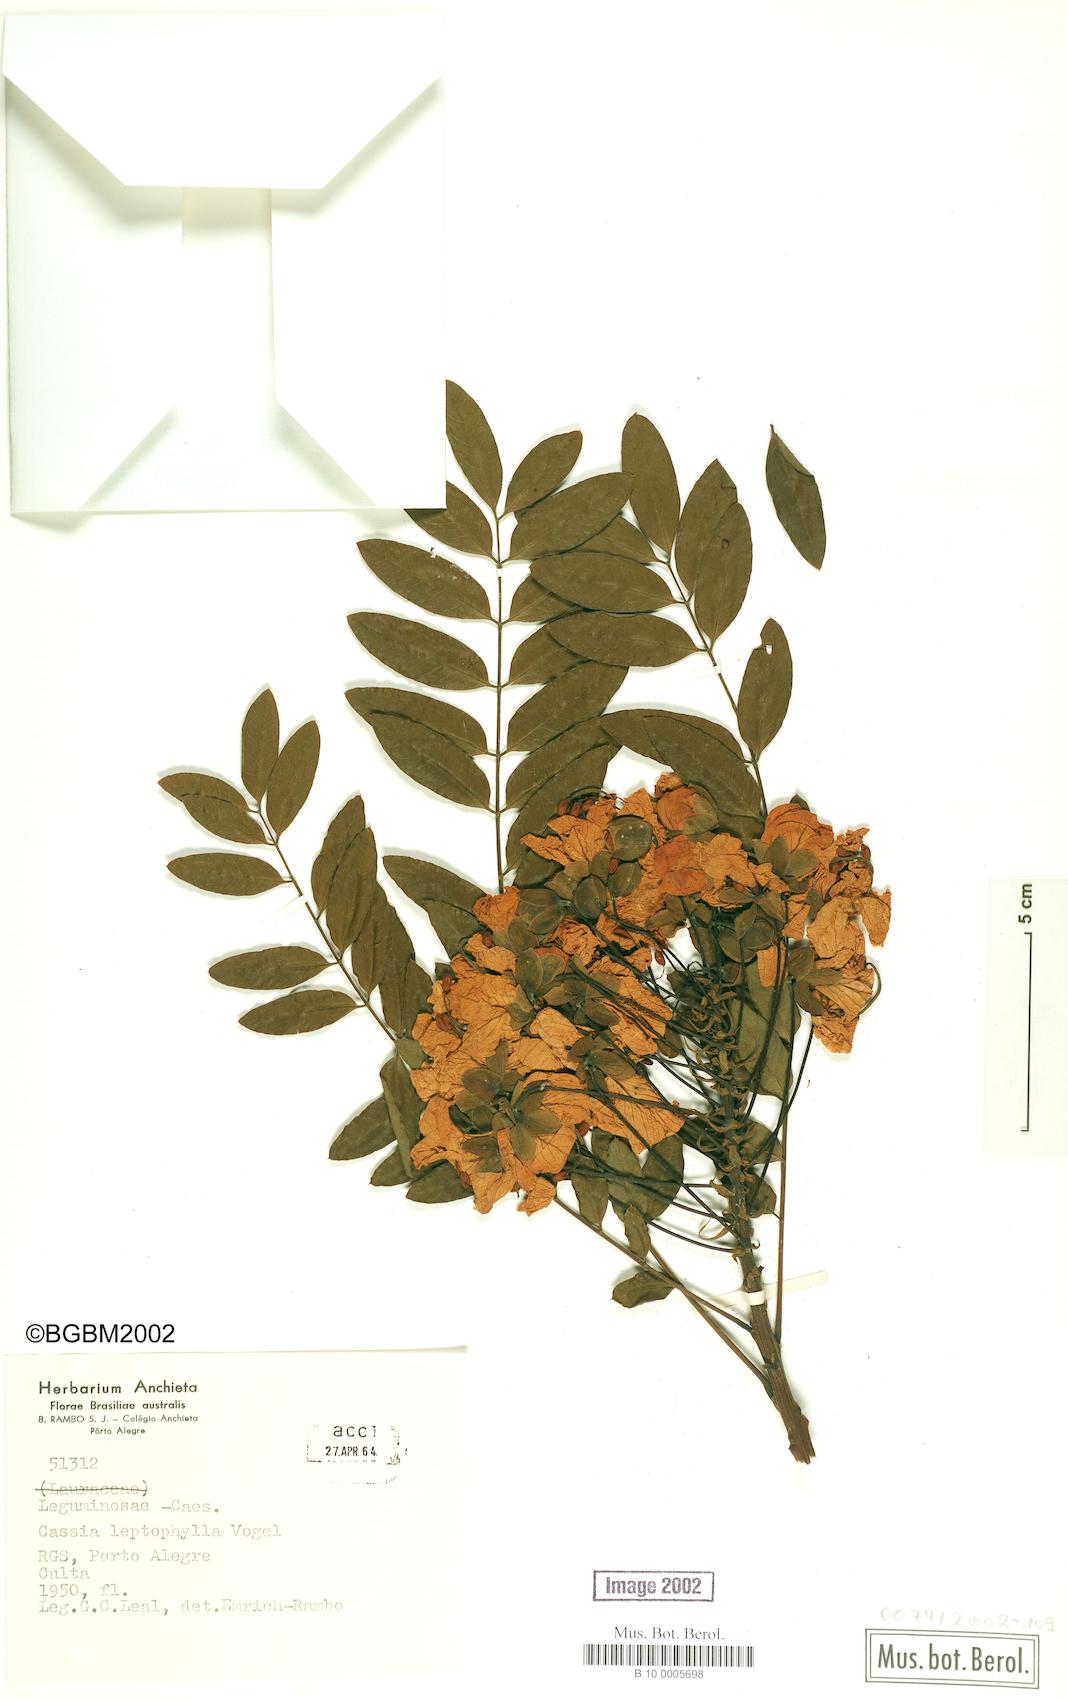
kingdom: Plantae
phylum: Tracheophyta
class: Magnoliopsida
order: Fabales
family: Fabaceae
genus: Cassia
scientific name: Cassia leptophylla
